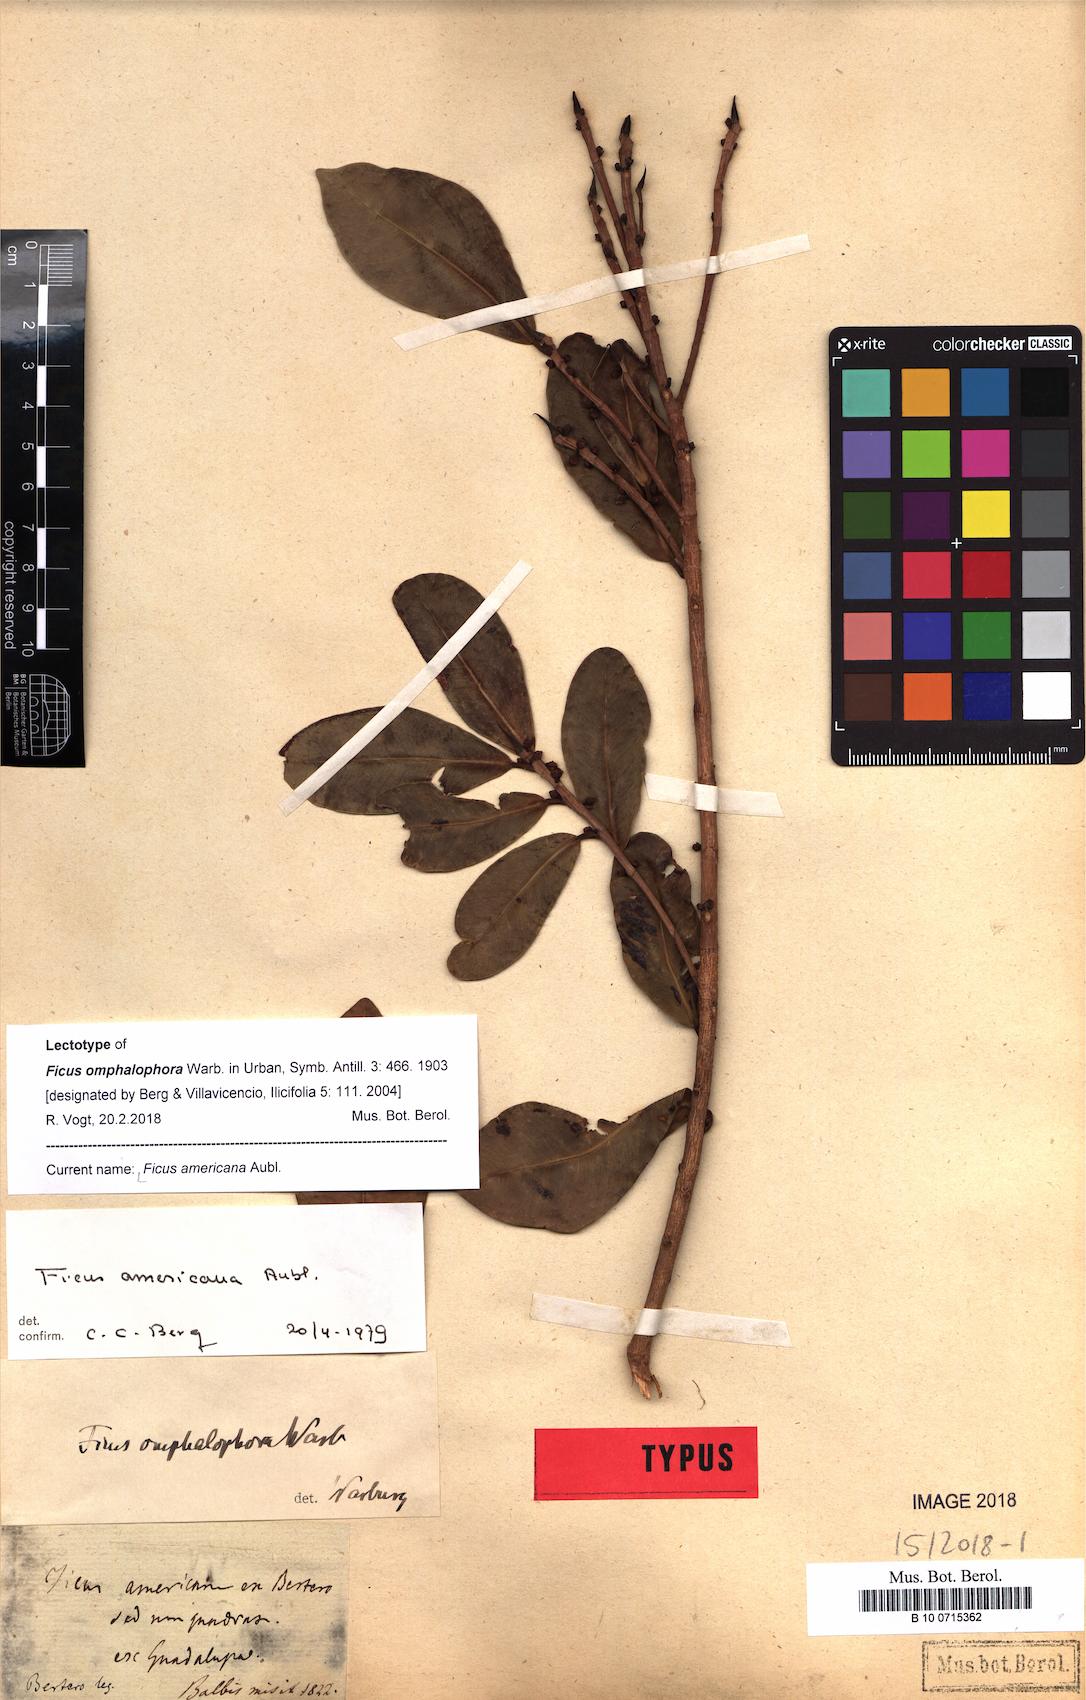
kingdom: Plantae
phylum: Tracheophyta
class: Magnoliopsida
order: Rosales
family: Moraceae
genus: Ficus
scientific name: Ficus americana
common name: Jamaican cherry fig
